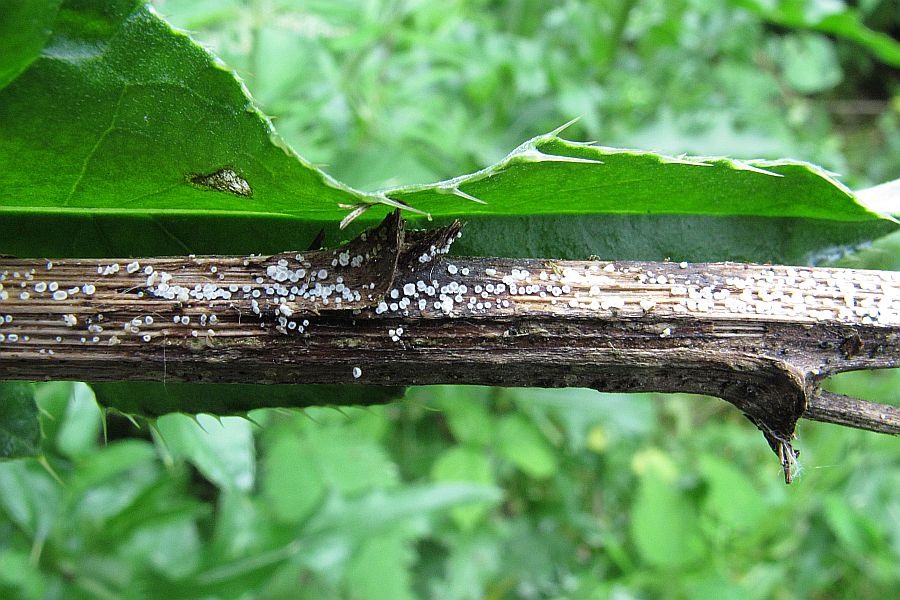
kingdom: Fungi
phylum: Basidiomycota
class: Agaricomycetes
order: Agaricales
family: Niaceae
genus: Lachnella
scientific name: Lachnella villosa
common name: hvid frynserede
